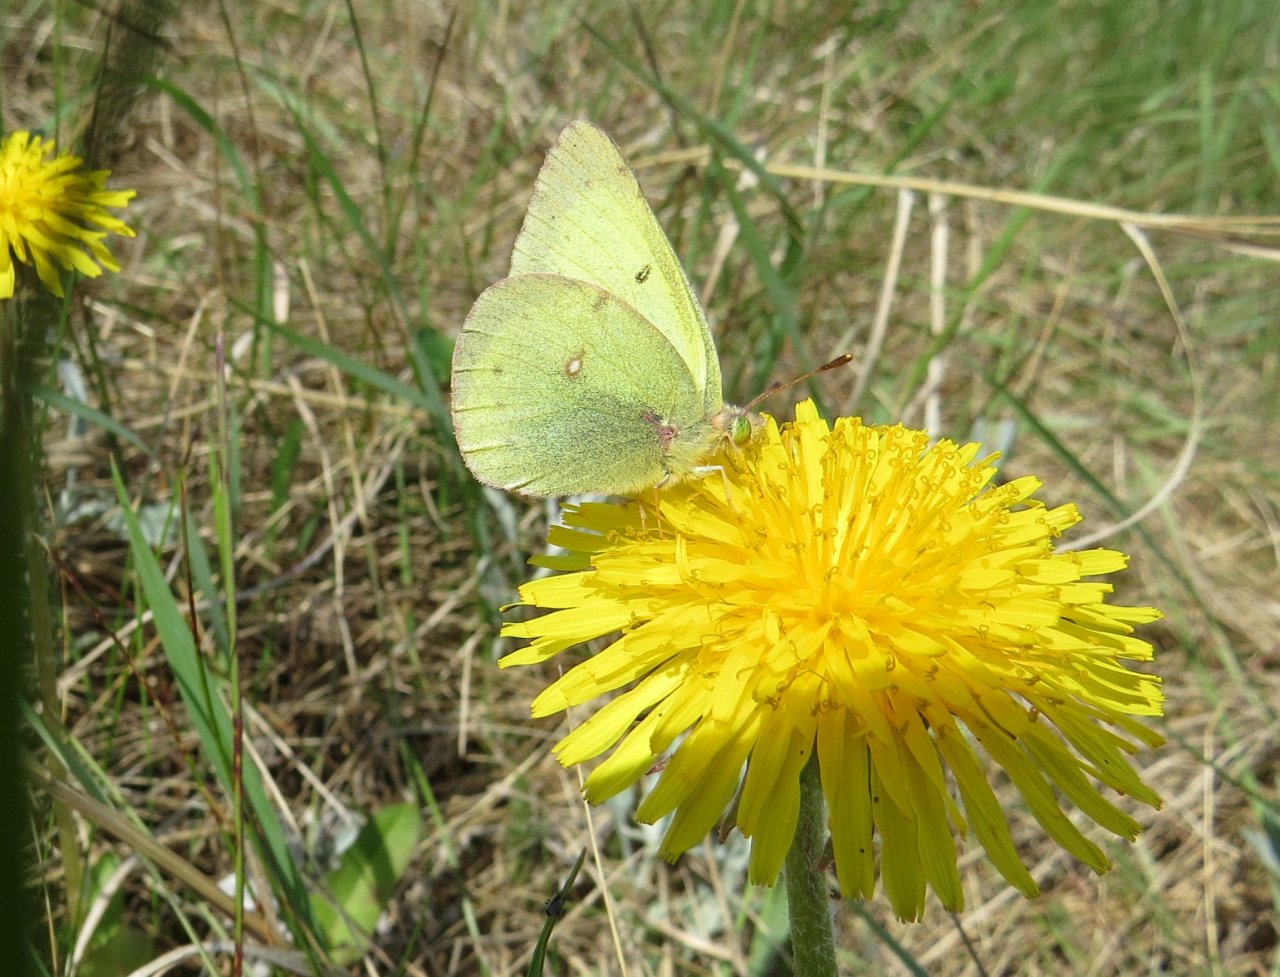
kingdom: Animalia
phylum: Arthropoda
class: Insecta
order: Lepidoptera
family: Pieridae
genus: Colias
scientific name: Colias philodice
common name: Clouded Sulphur
